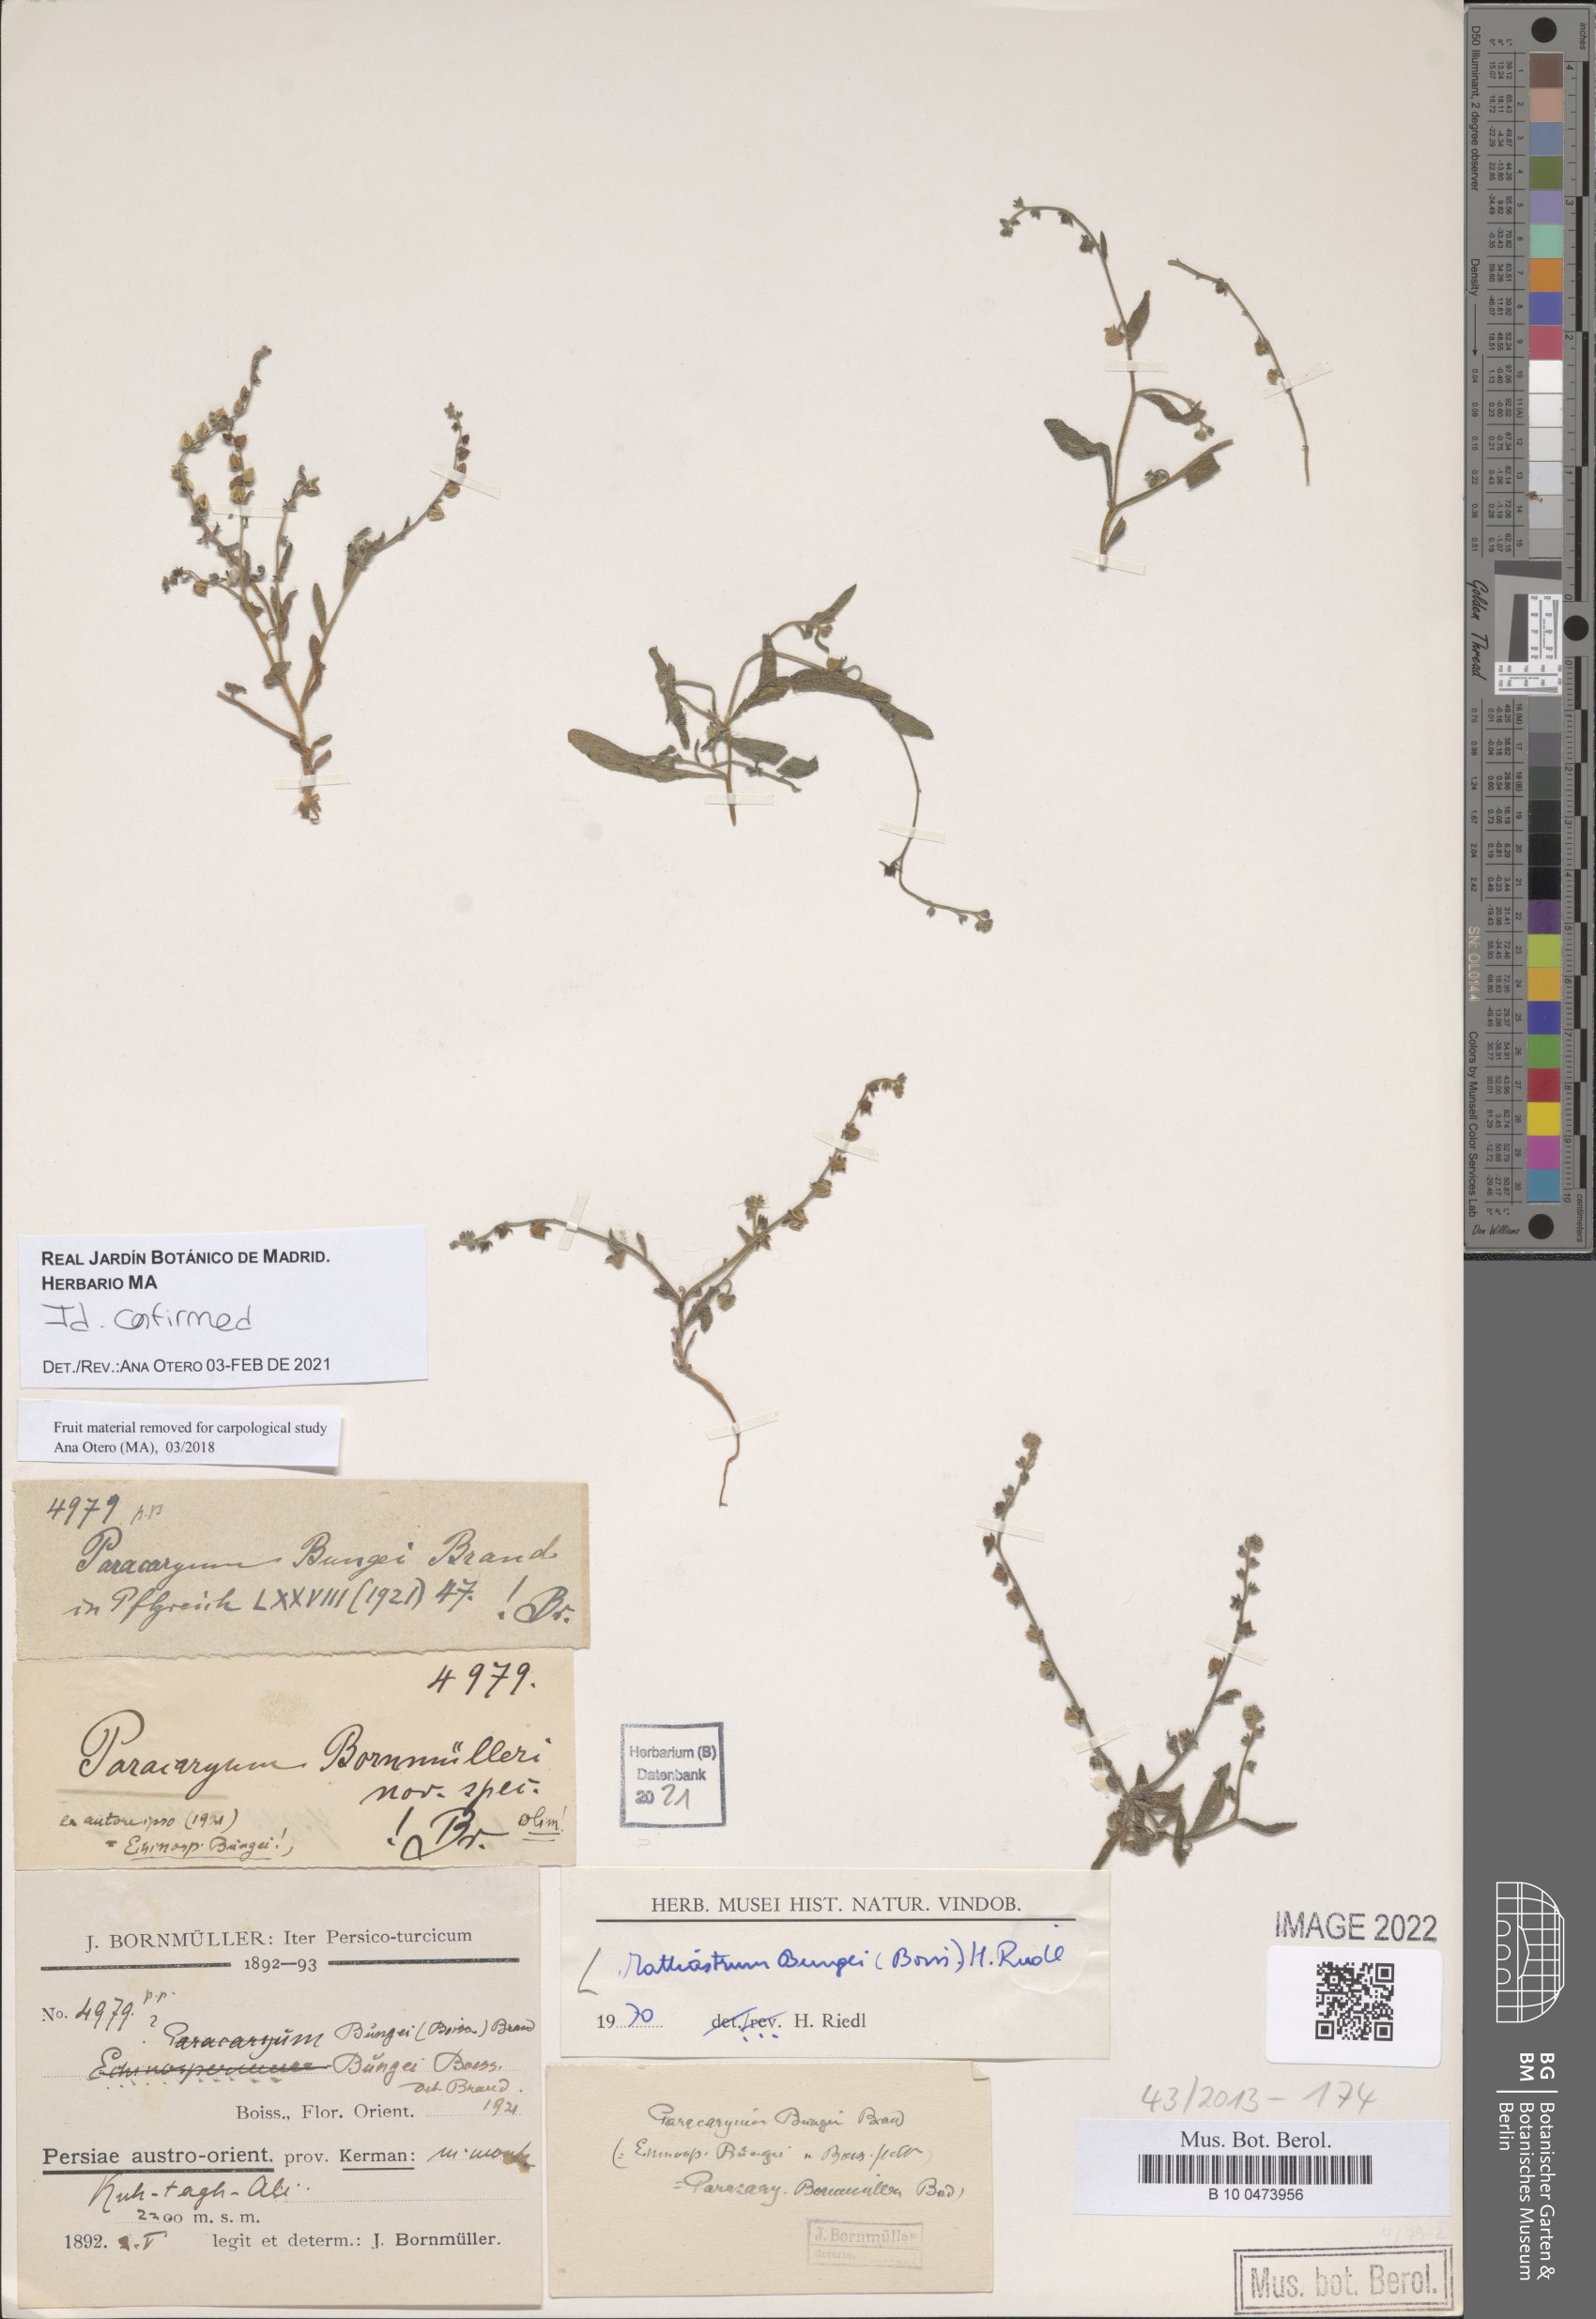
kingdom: Plantae
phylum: Tracheophyta
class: Magnoliopsida
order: Boraginales
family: Boraginaceae
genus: Microparacaryum
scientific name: Microparacaryum intermedium
